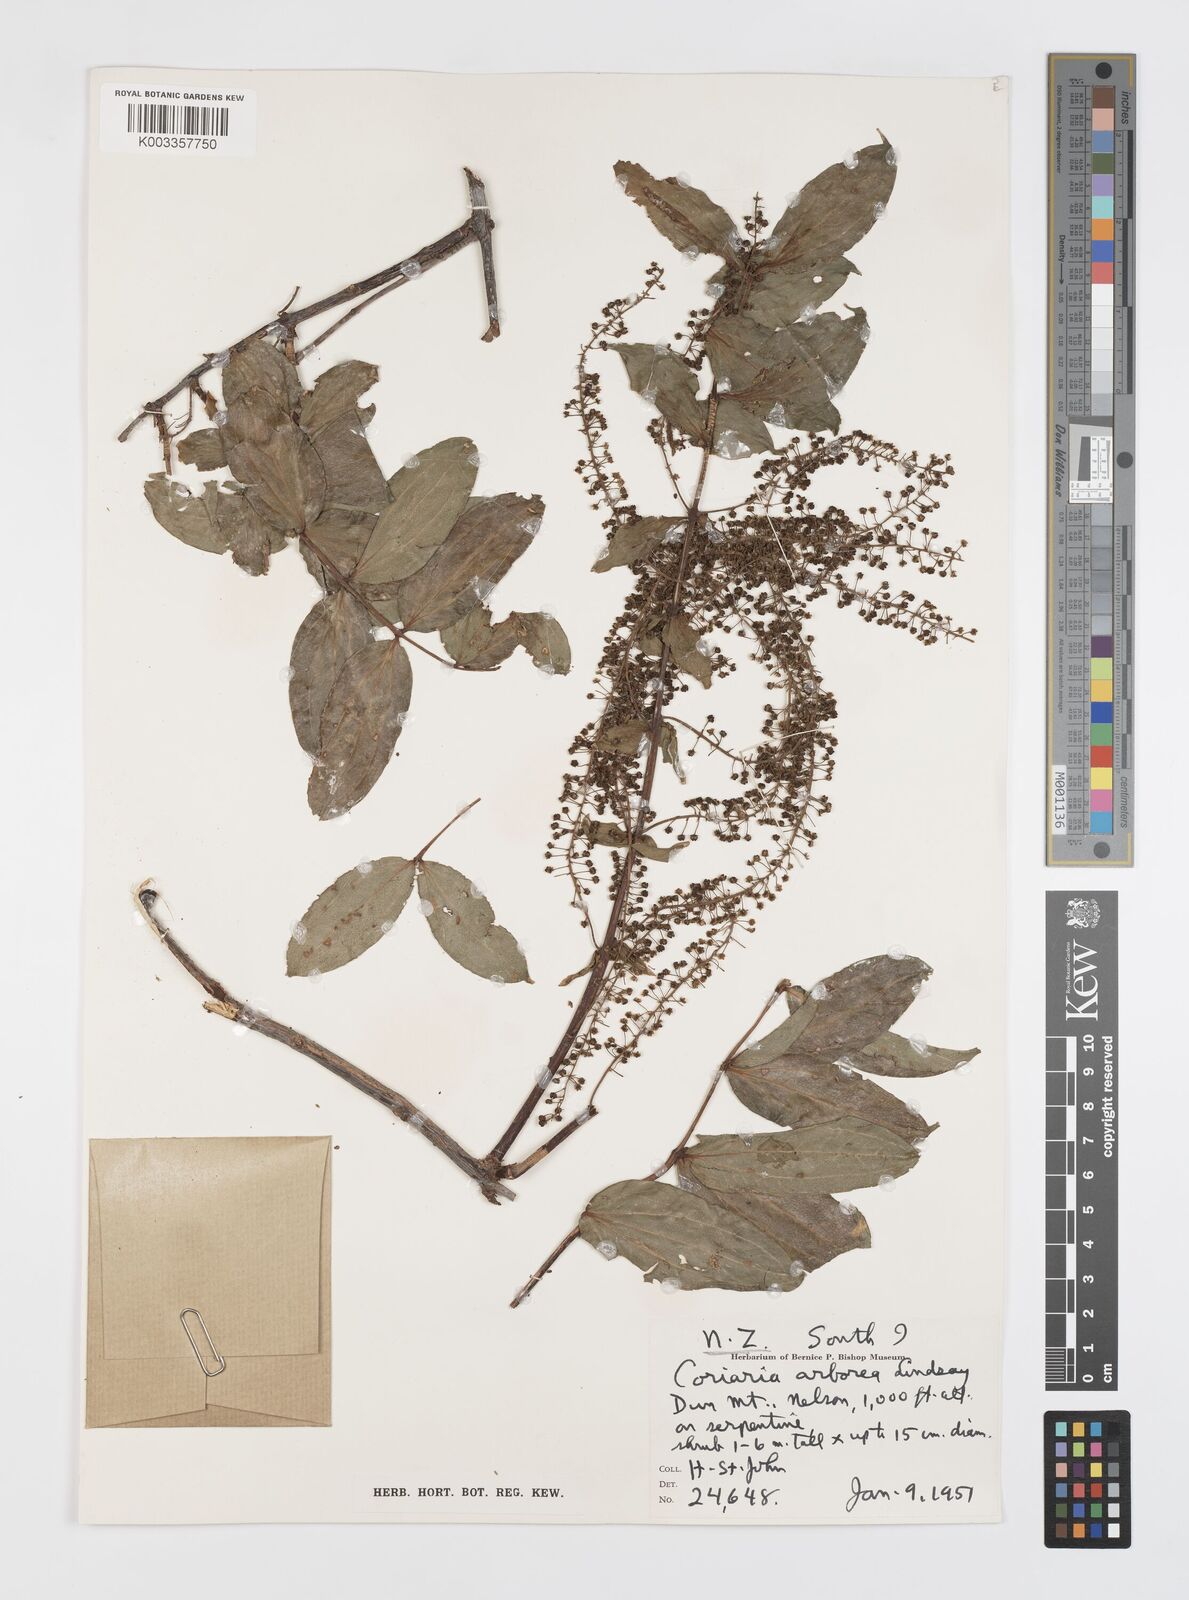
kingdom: Plantae
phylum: Tracheophyta
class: Magnoliopsida
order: Cucurbitales
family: Coriariaceae
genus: Coriaria
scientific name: Coriaria arborea
